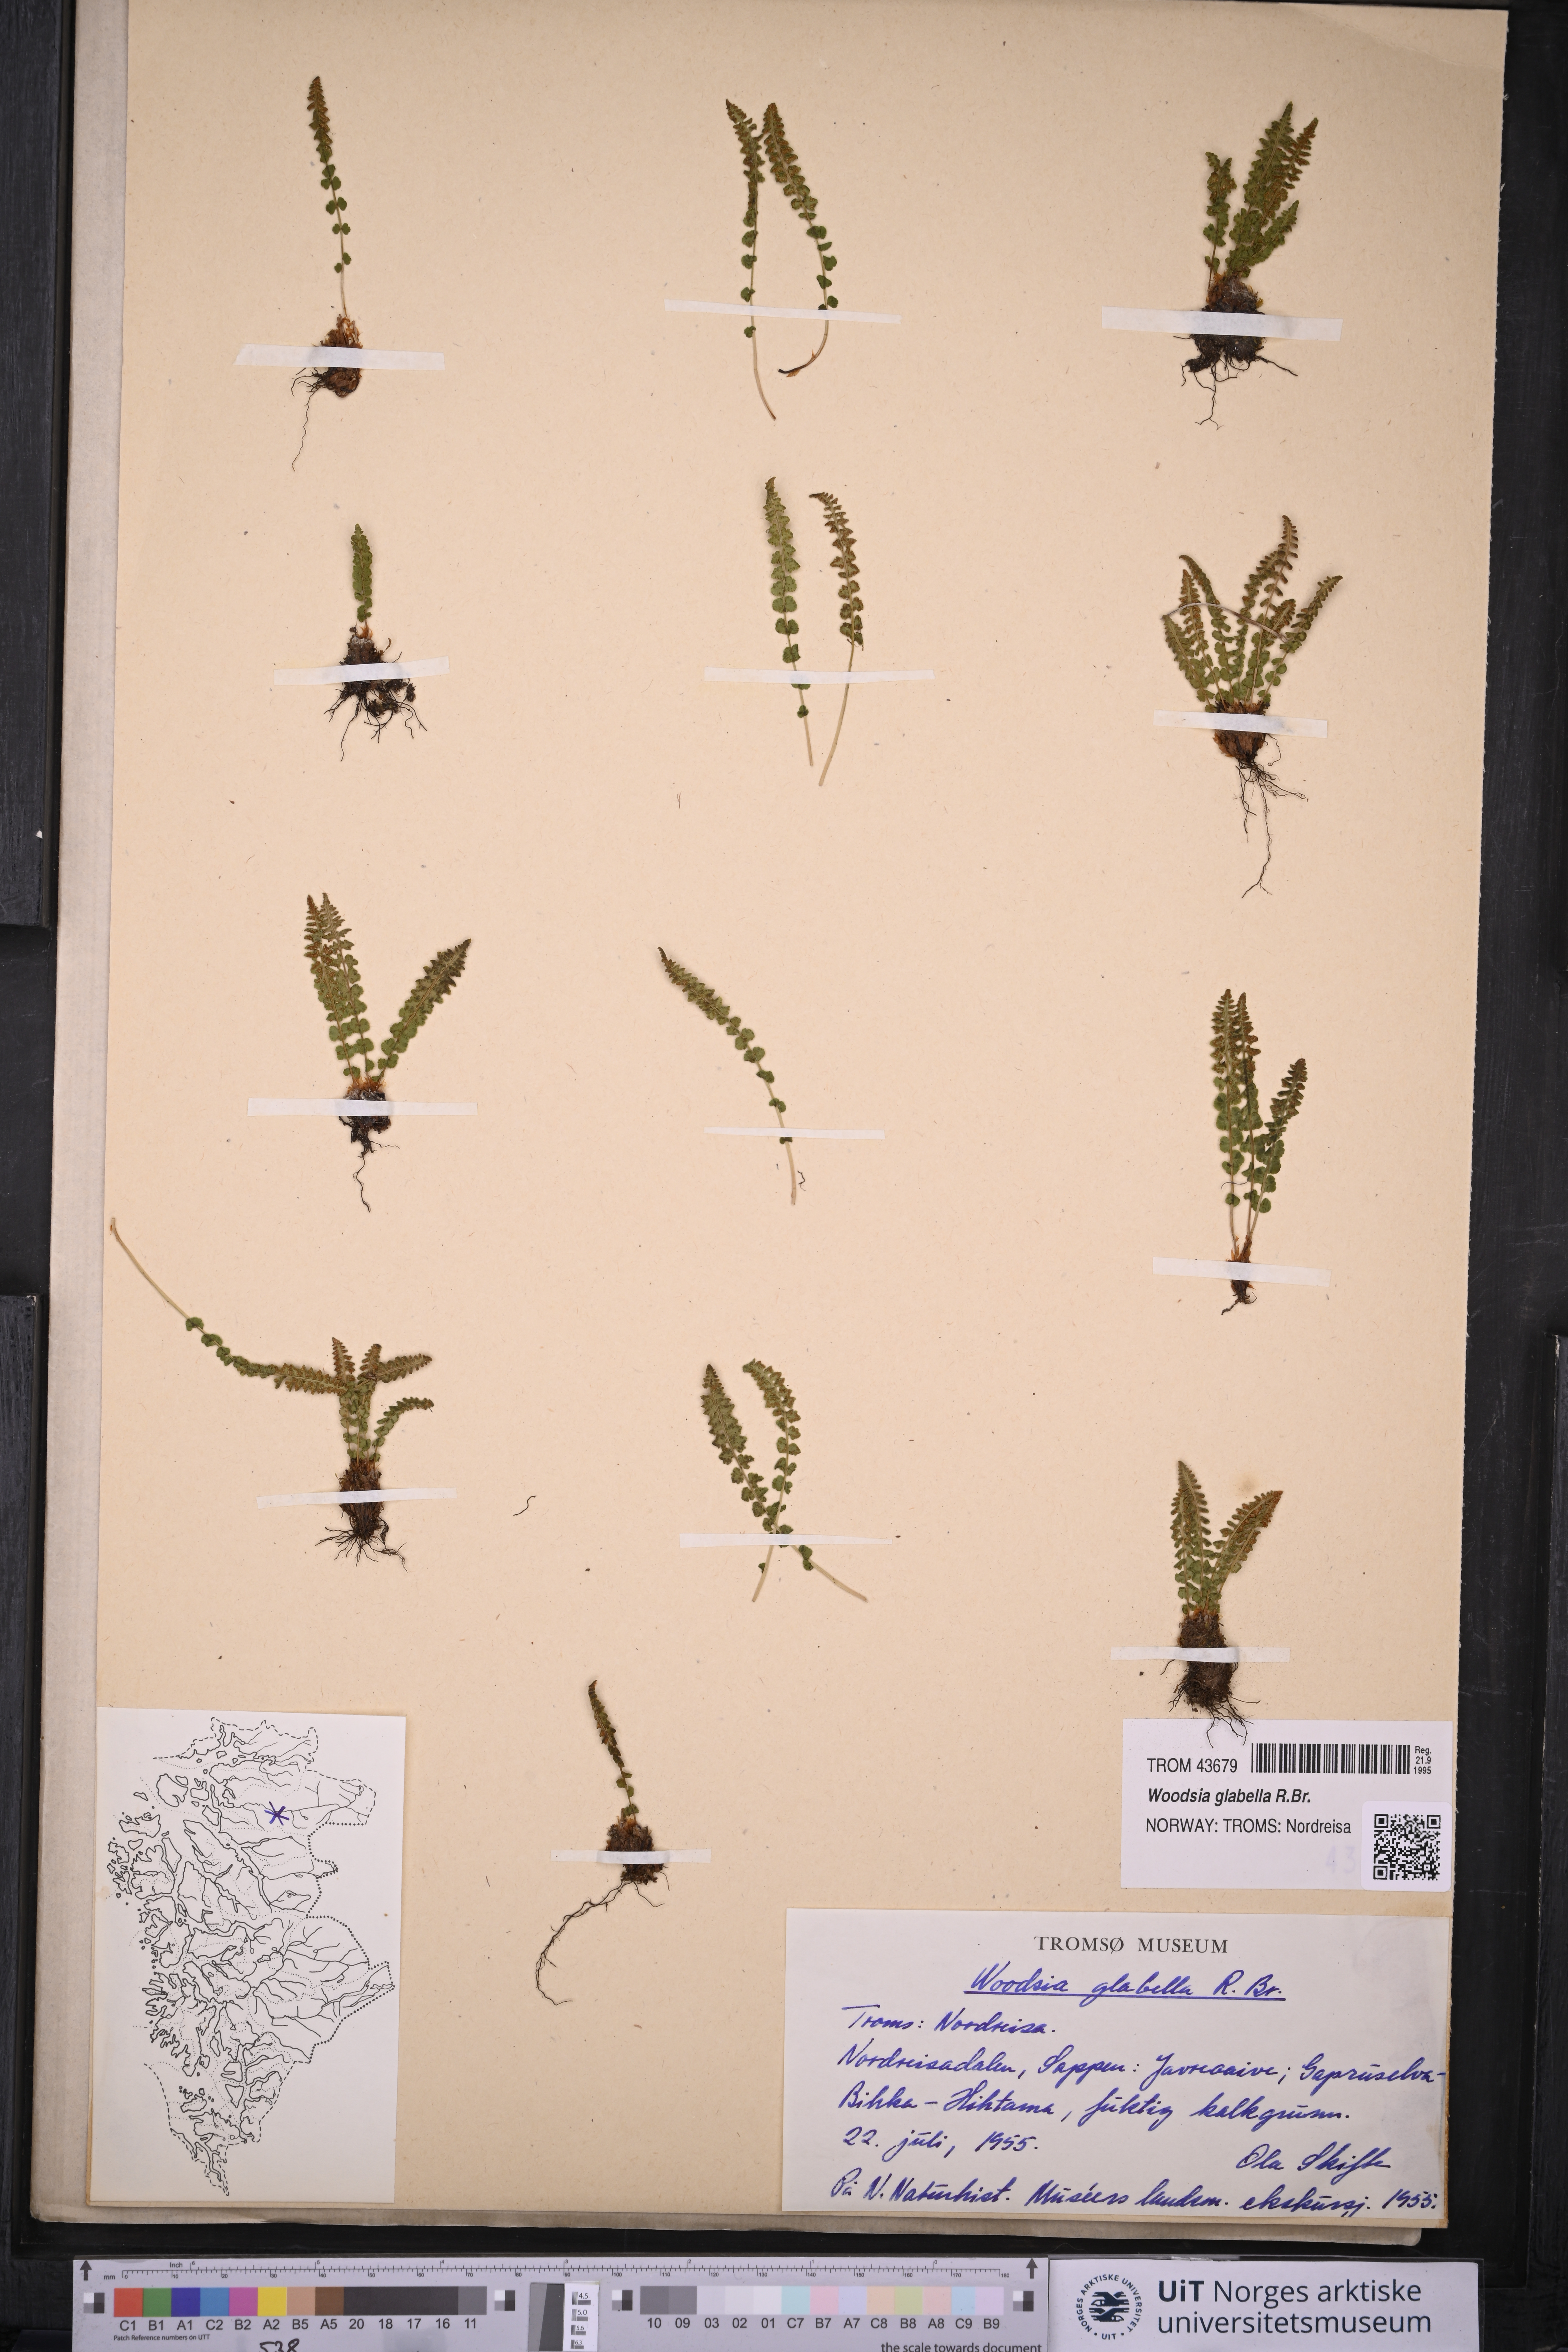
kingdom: Plantae
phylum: Tracheophyta
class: Polypodiopsida
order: Polypodiales
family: Woodsiaceae
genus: Woodsia
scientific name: Woodsia glabella
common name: Smooth woodsia
